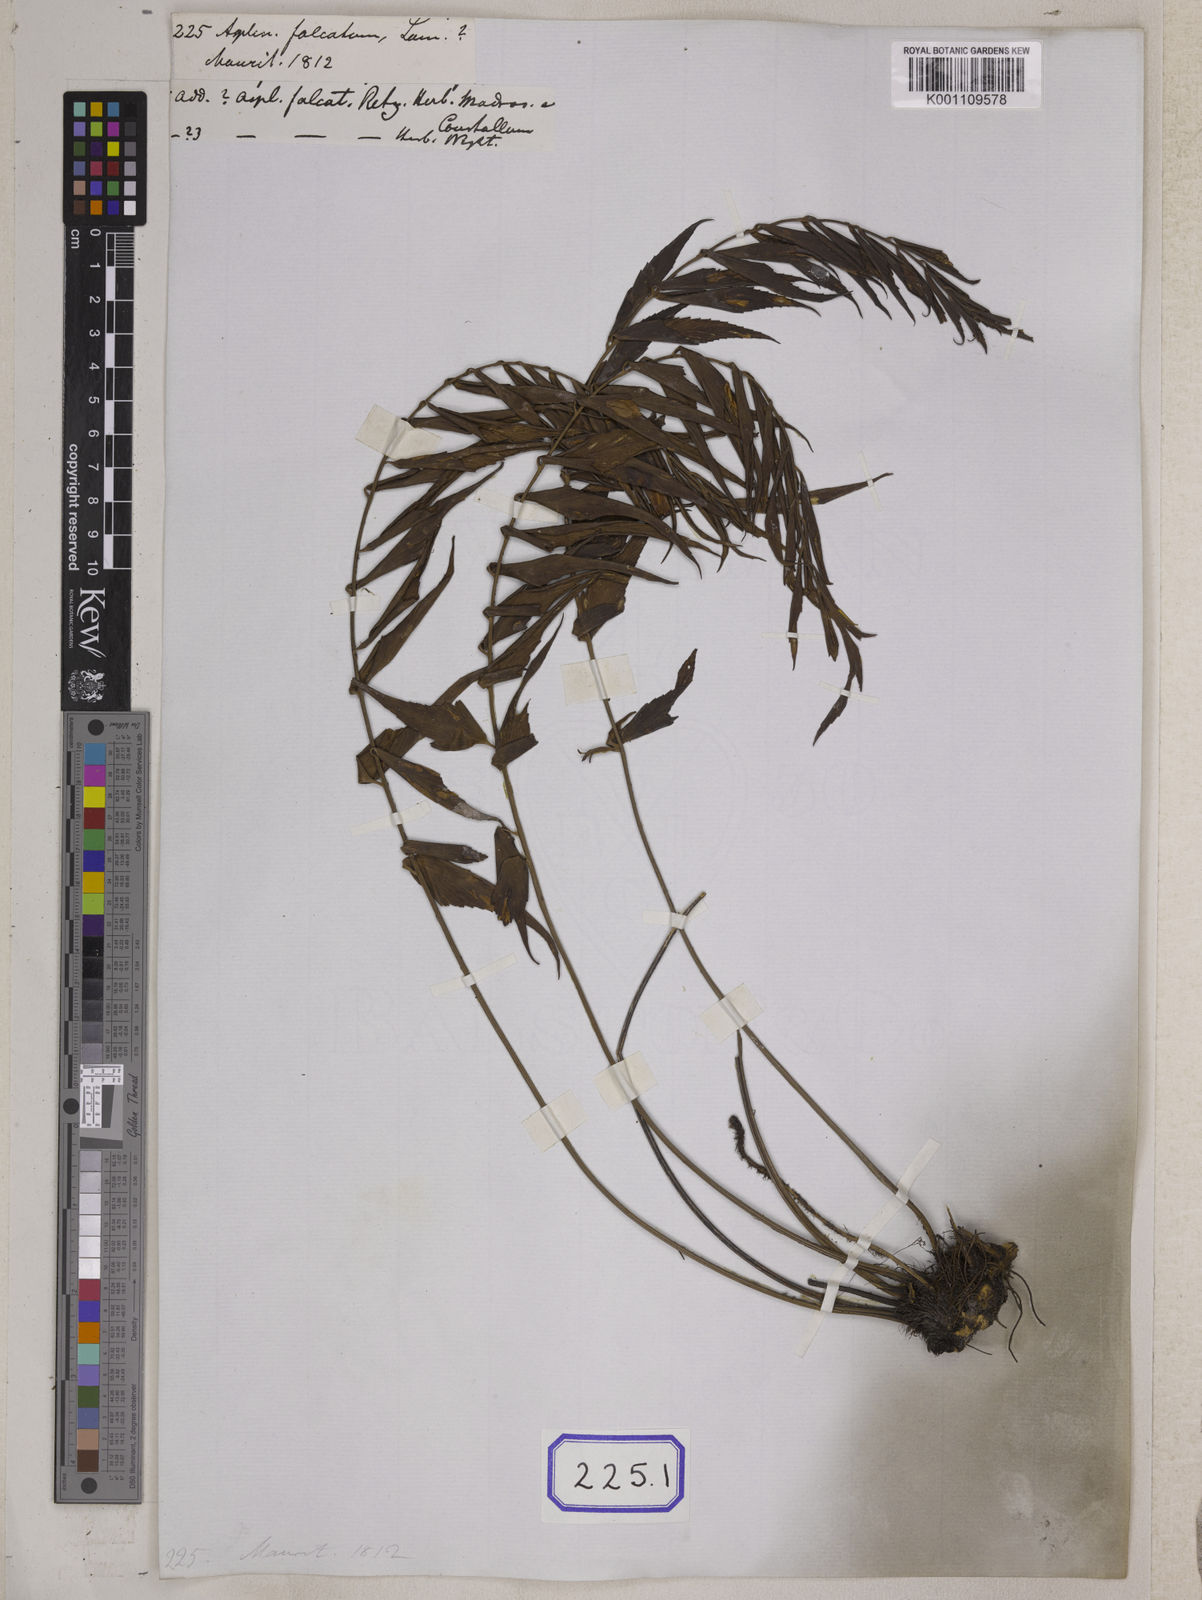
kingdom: Plantae
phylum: Tracheophyta
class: Polypodiopsida
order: Polypodiales
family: Aspleniaceae
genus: Asplenium
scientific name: Asplenium falcatum
